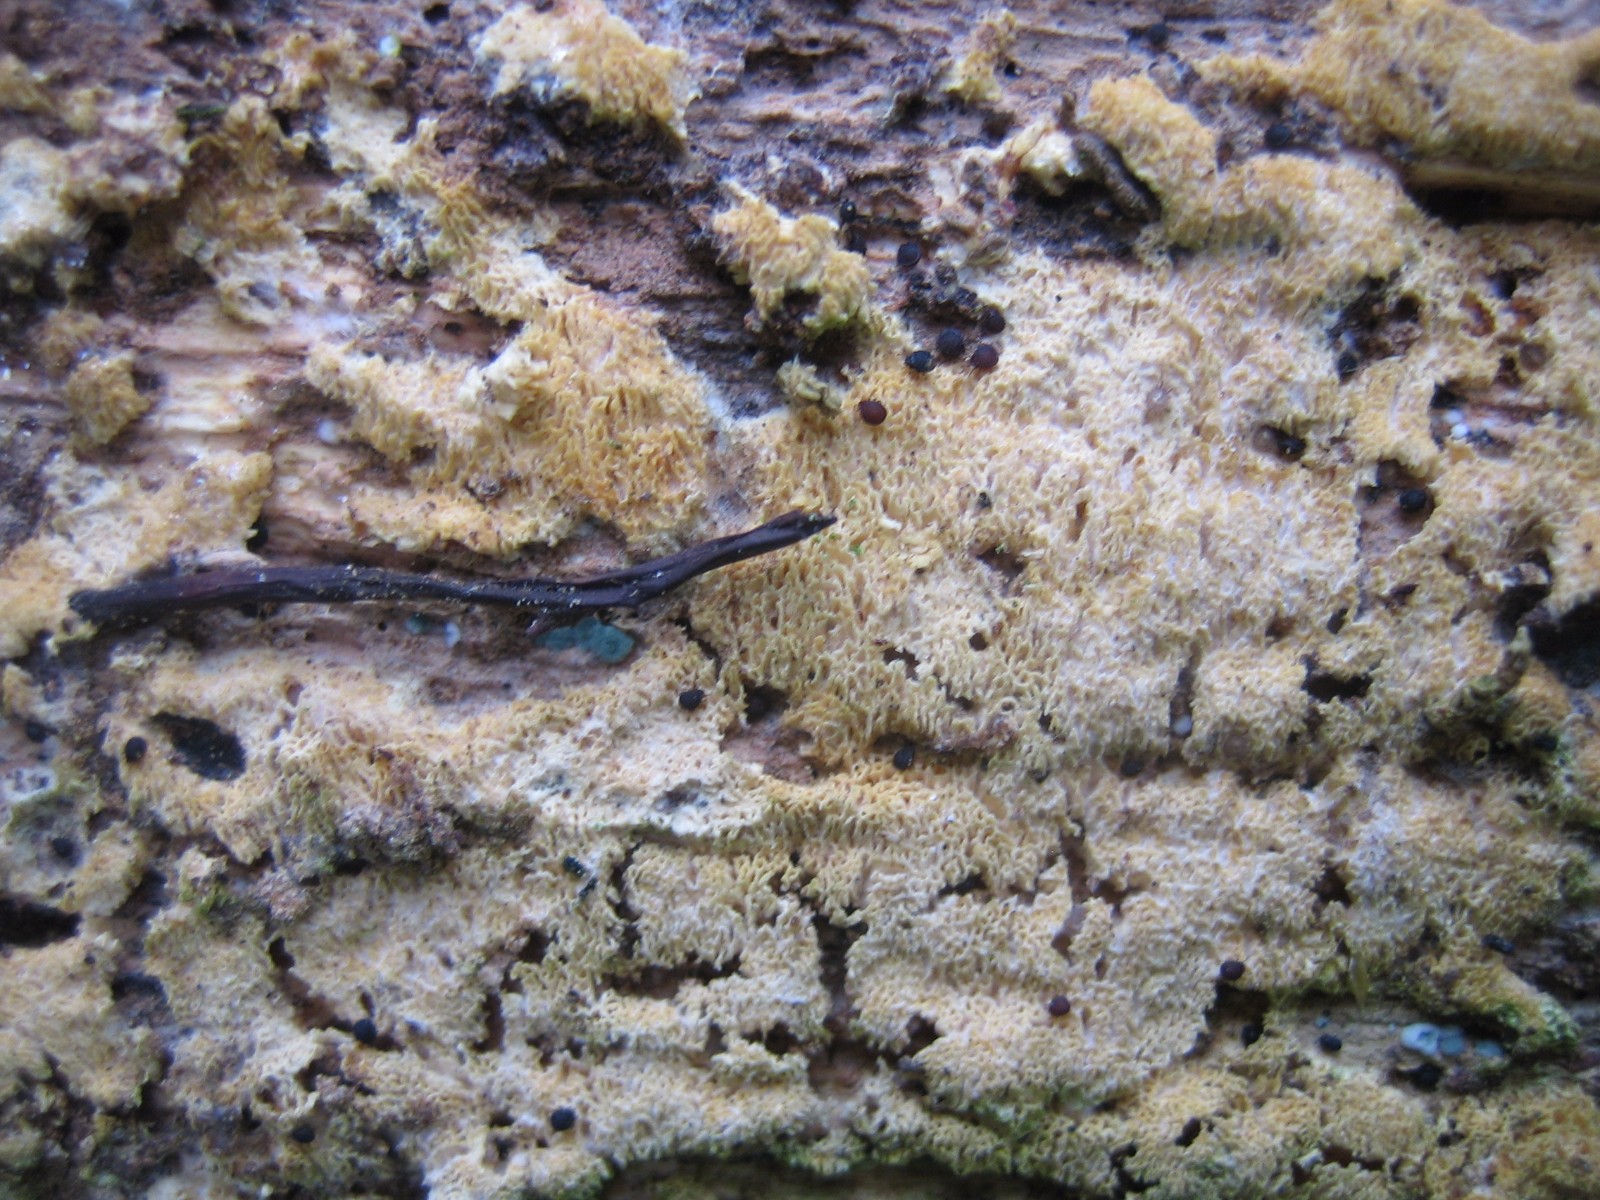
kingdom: Fungi
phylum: Basidiomycota
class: Agaricomycetes
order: Hymenochaetales
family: Schizoporaceae
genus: Xylodon
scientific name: Xylodon subtropicus
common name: labyrint-tandsvamp
